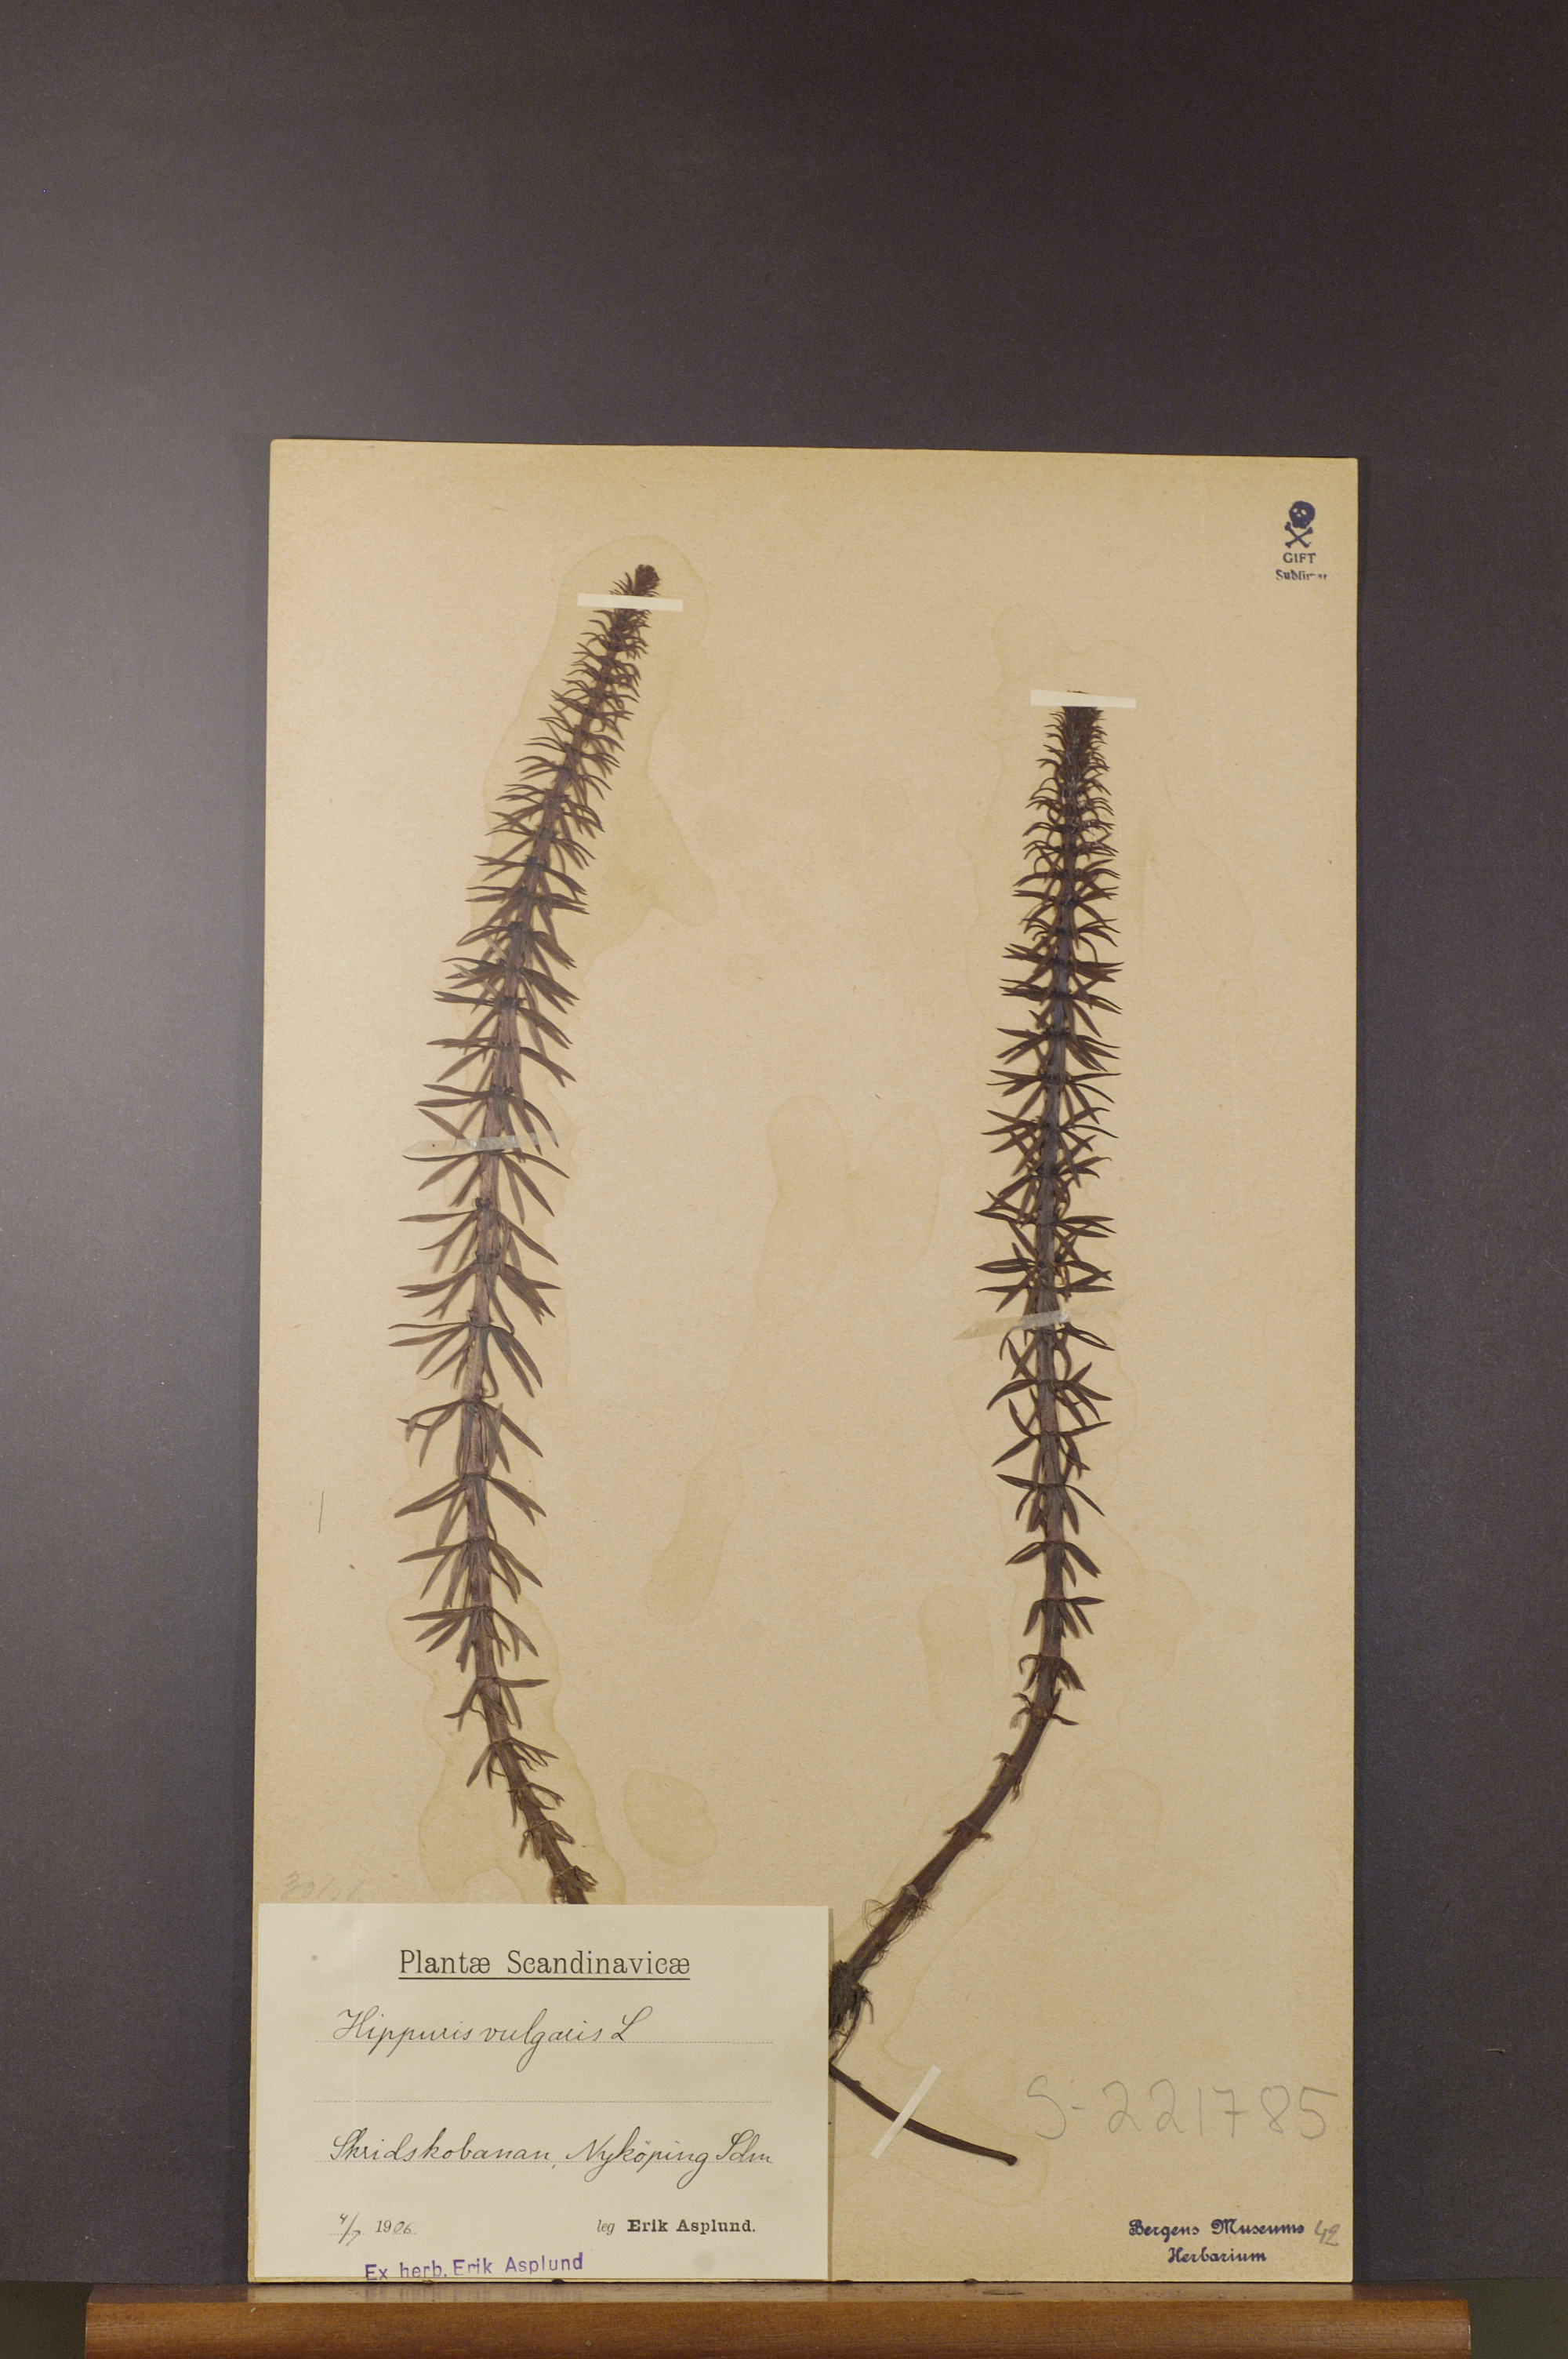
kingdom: Plantae
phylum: Tracheophyta
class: Magnoliopsida
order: Lamiales
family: Plantaginaceae
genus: Hippuris
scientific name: Hippuris vulgaris
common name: Mare's-tail
